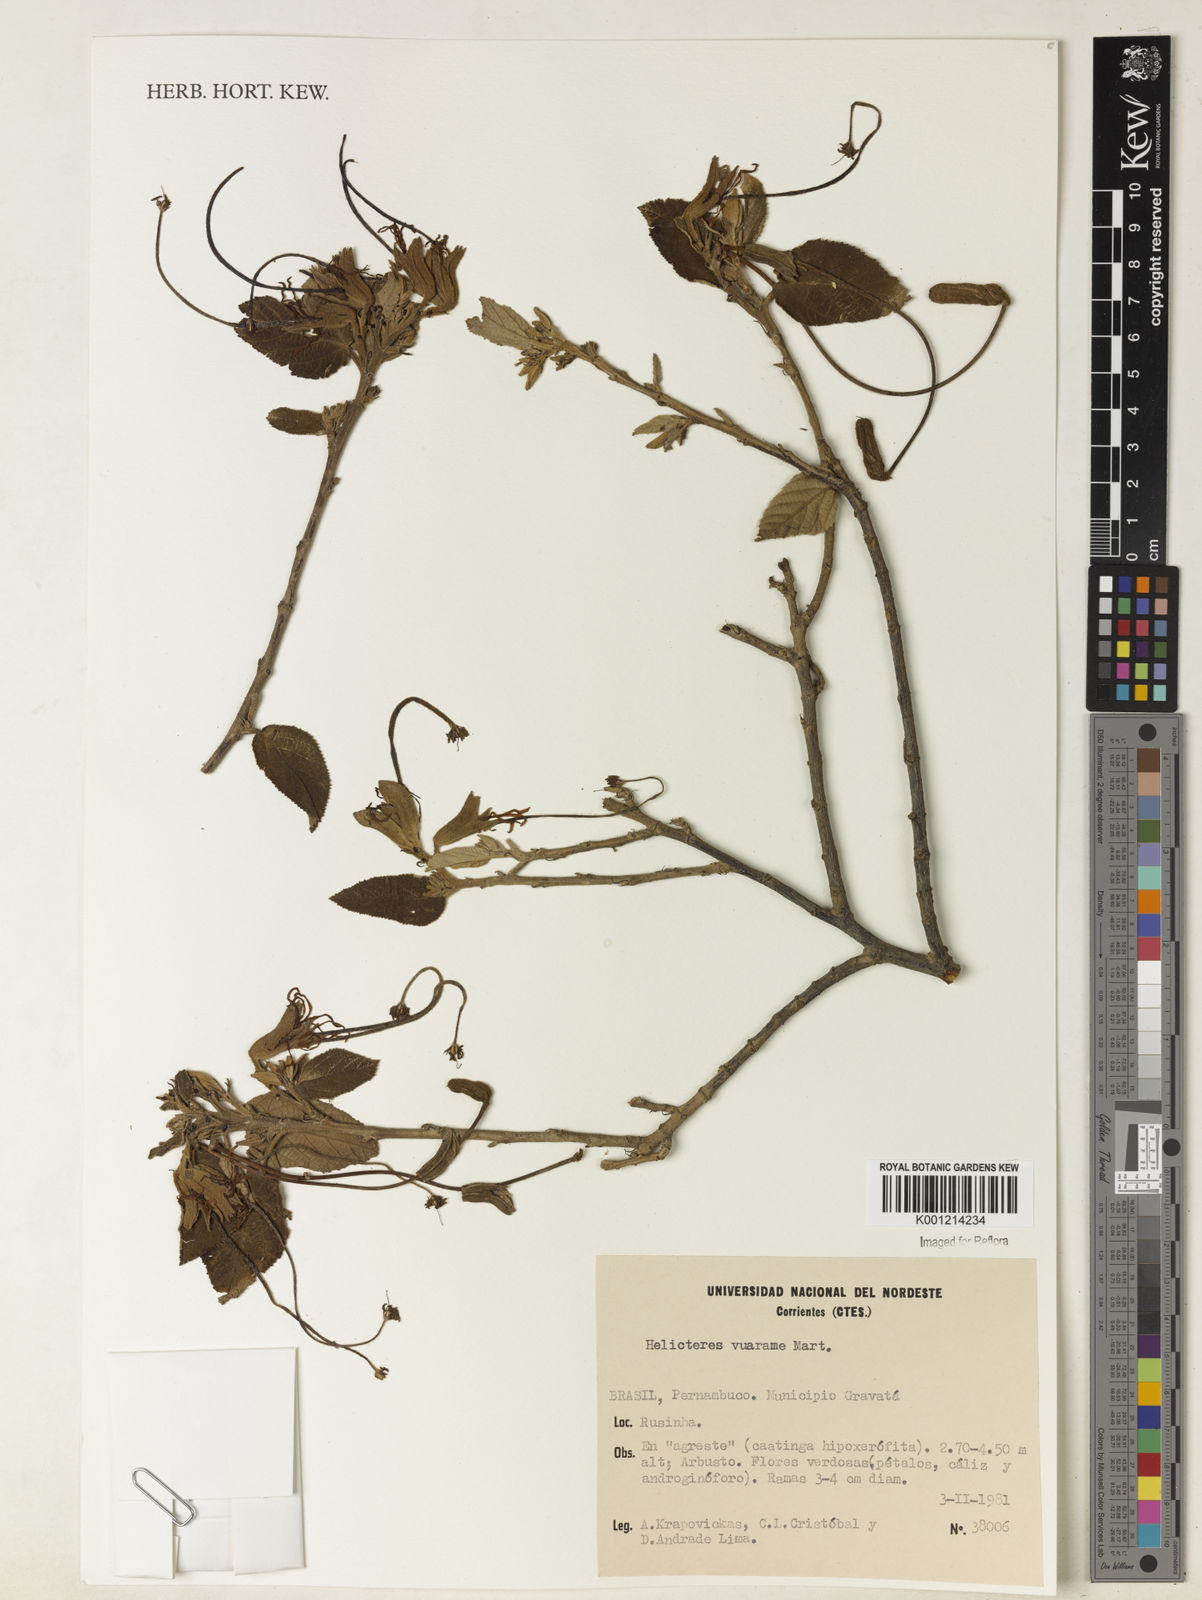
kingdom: Plantae
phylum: Tracheophyta
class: Magnoliopsida
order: Malvales
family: Malvaceae
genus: Helicteres
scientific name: Helicteres vuarame
